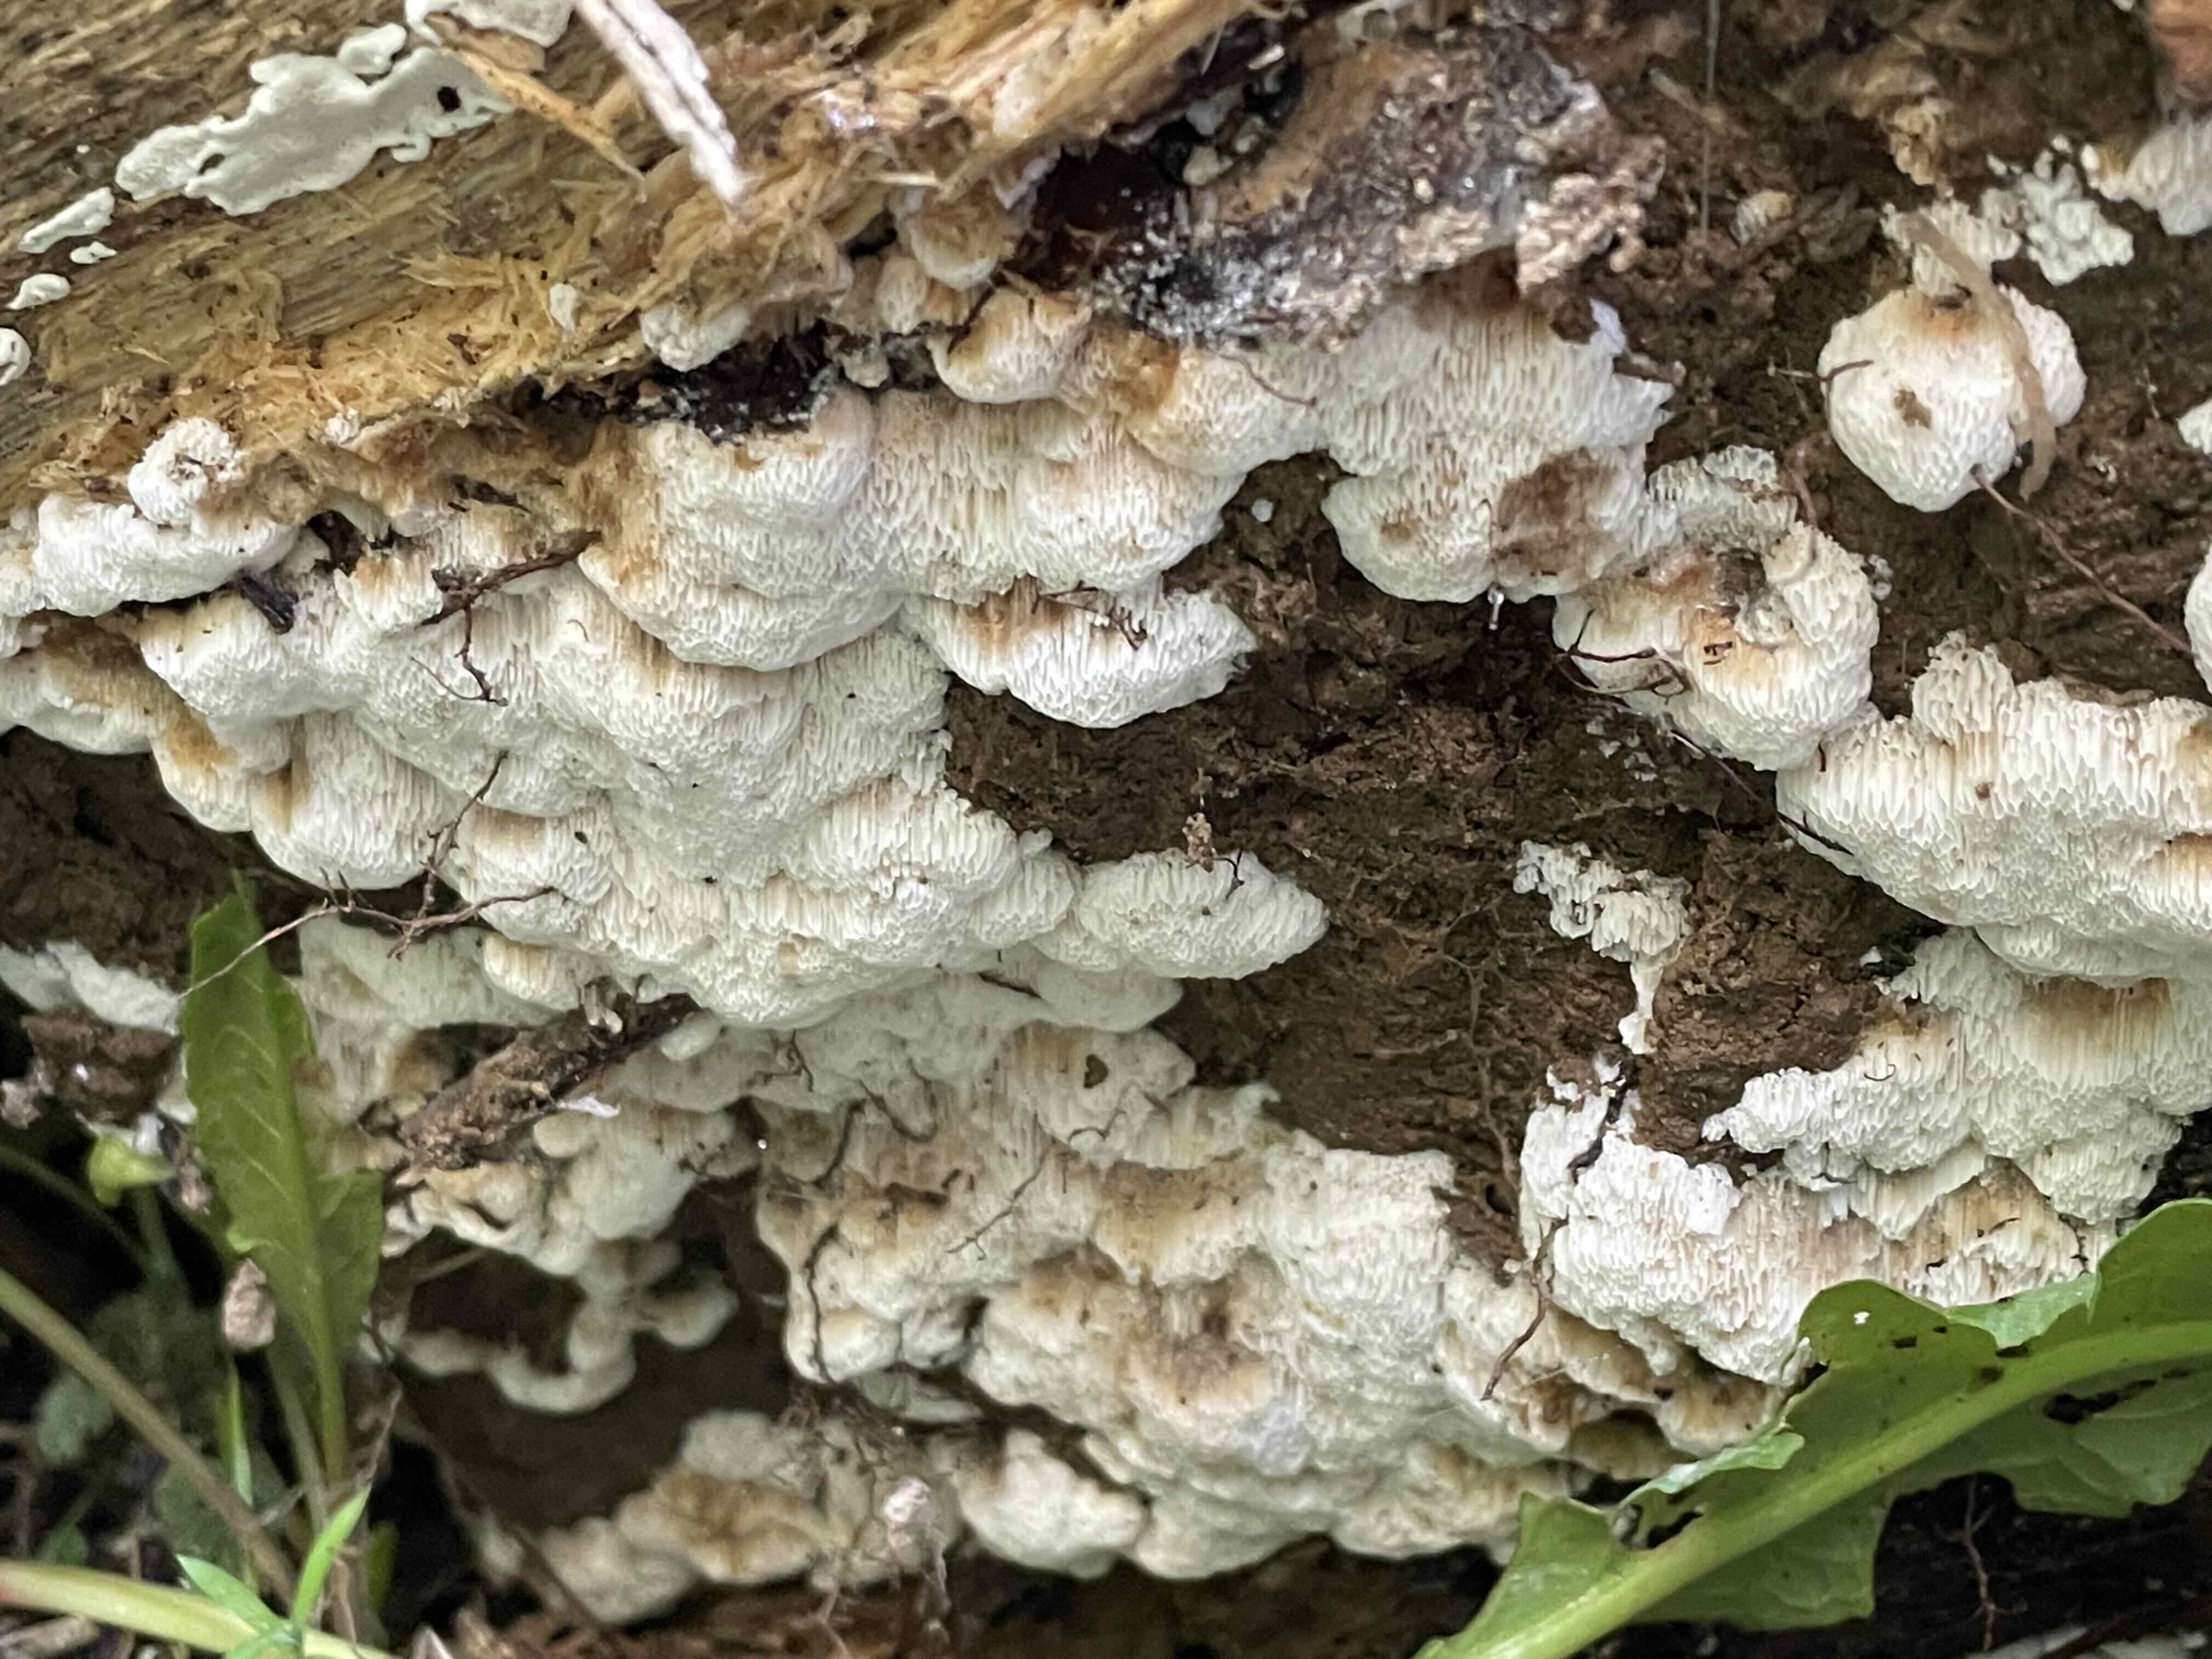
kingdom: Fungi
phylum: Basidiomycota
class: Agaricomycetes
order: Polyporales
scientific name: Polyporales
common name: poresvampordenen
